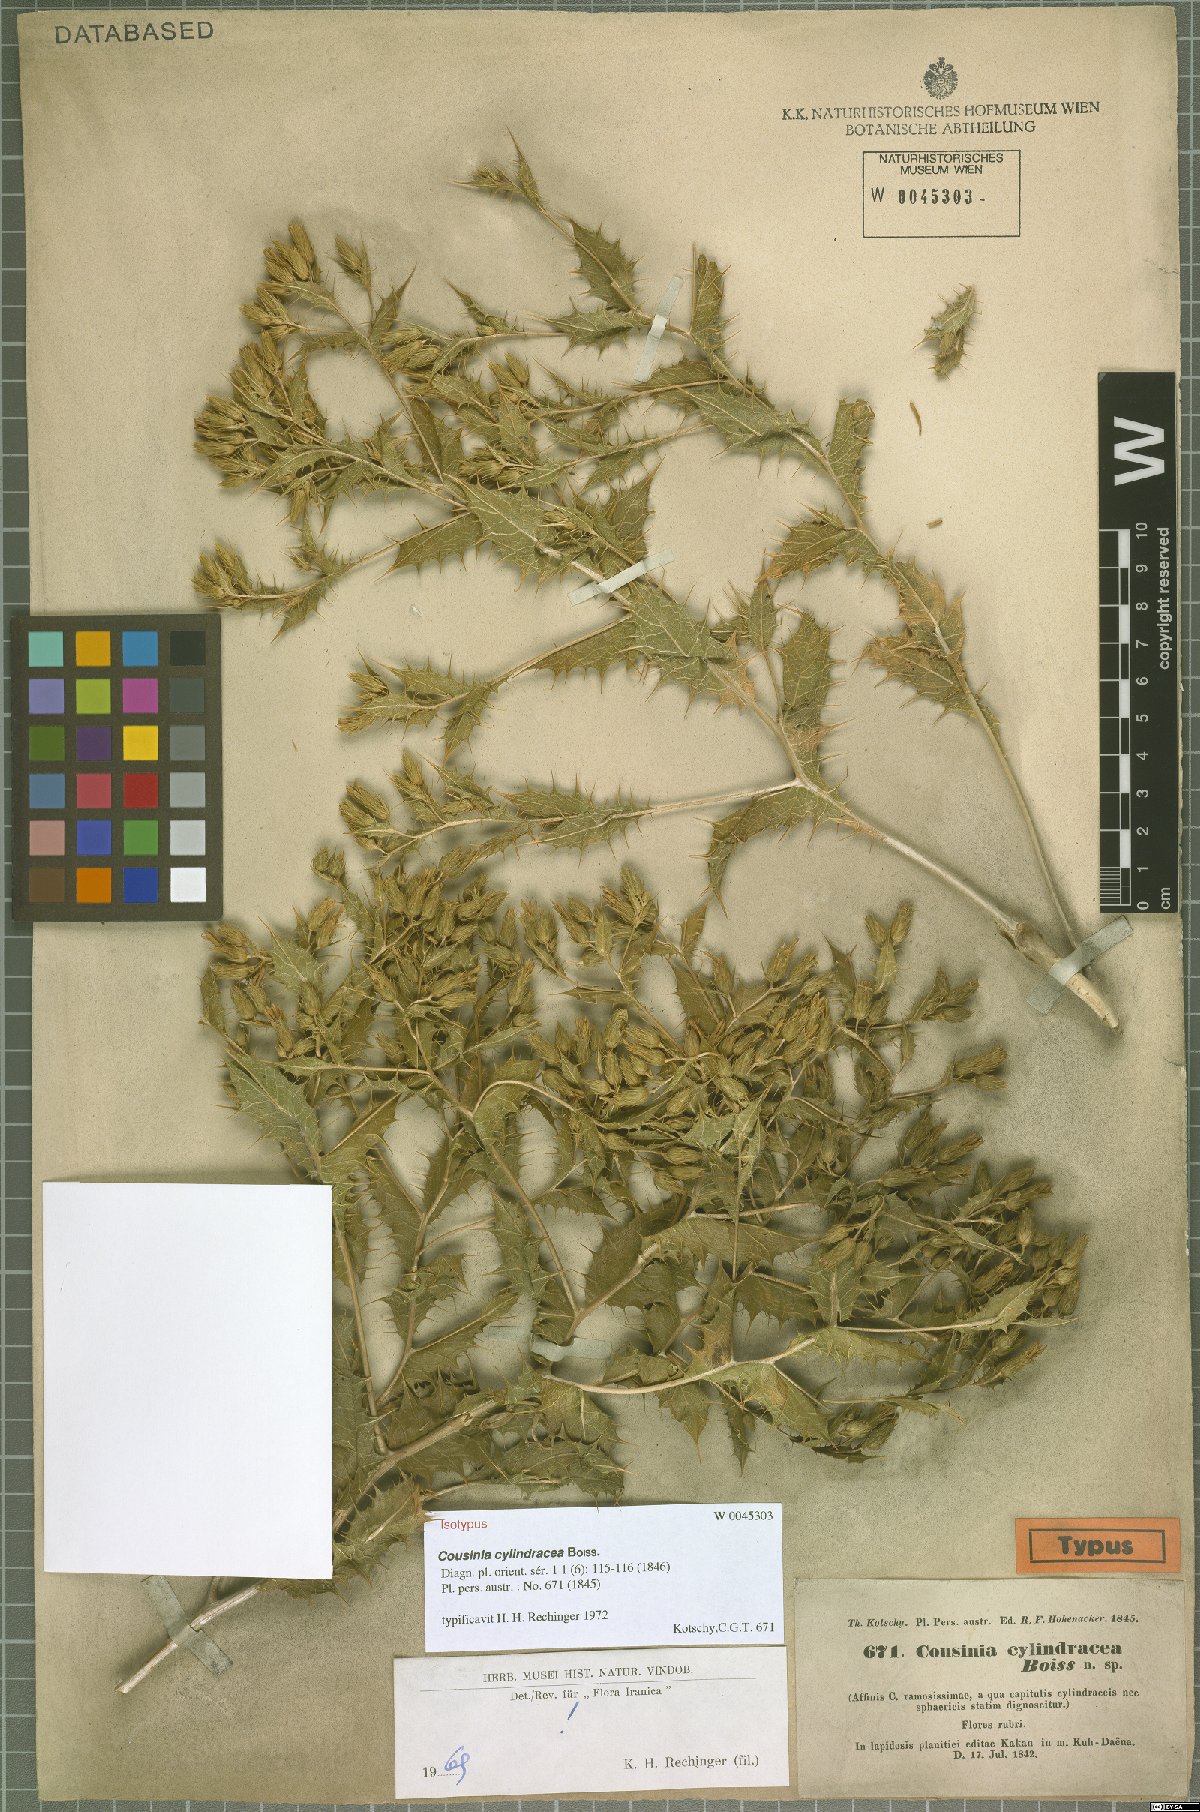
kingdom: Plantae
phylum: Tracheophyta
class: Magnoliopsida
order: Asterales
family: Asteraceae
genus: Cousinia
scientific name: Cousinia cylindracea
